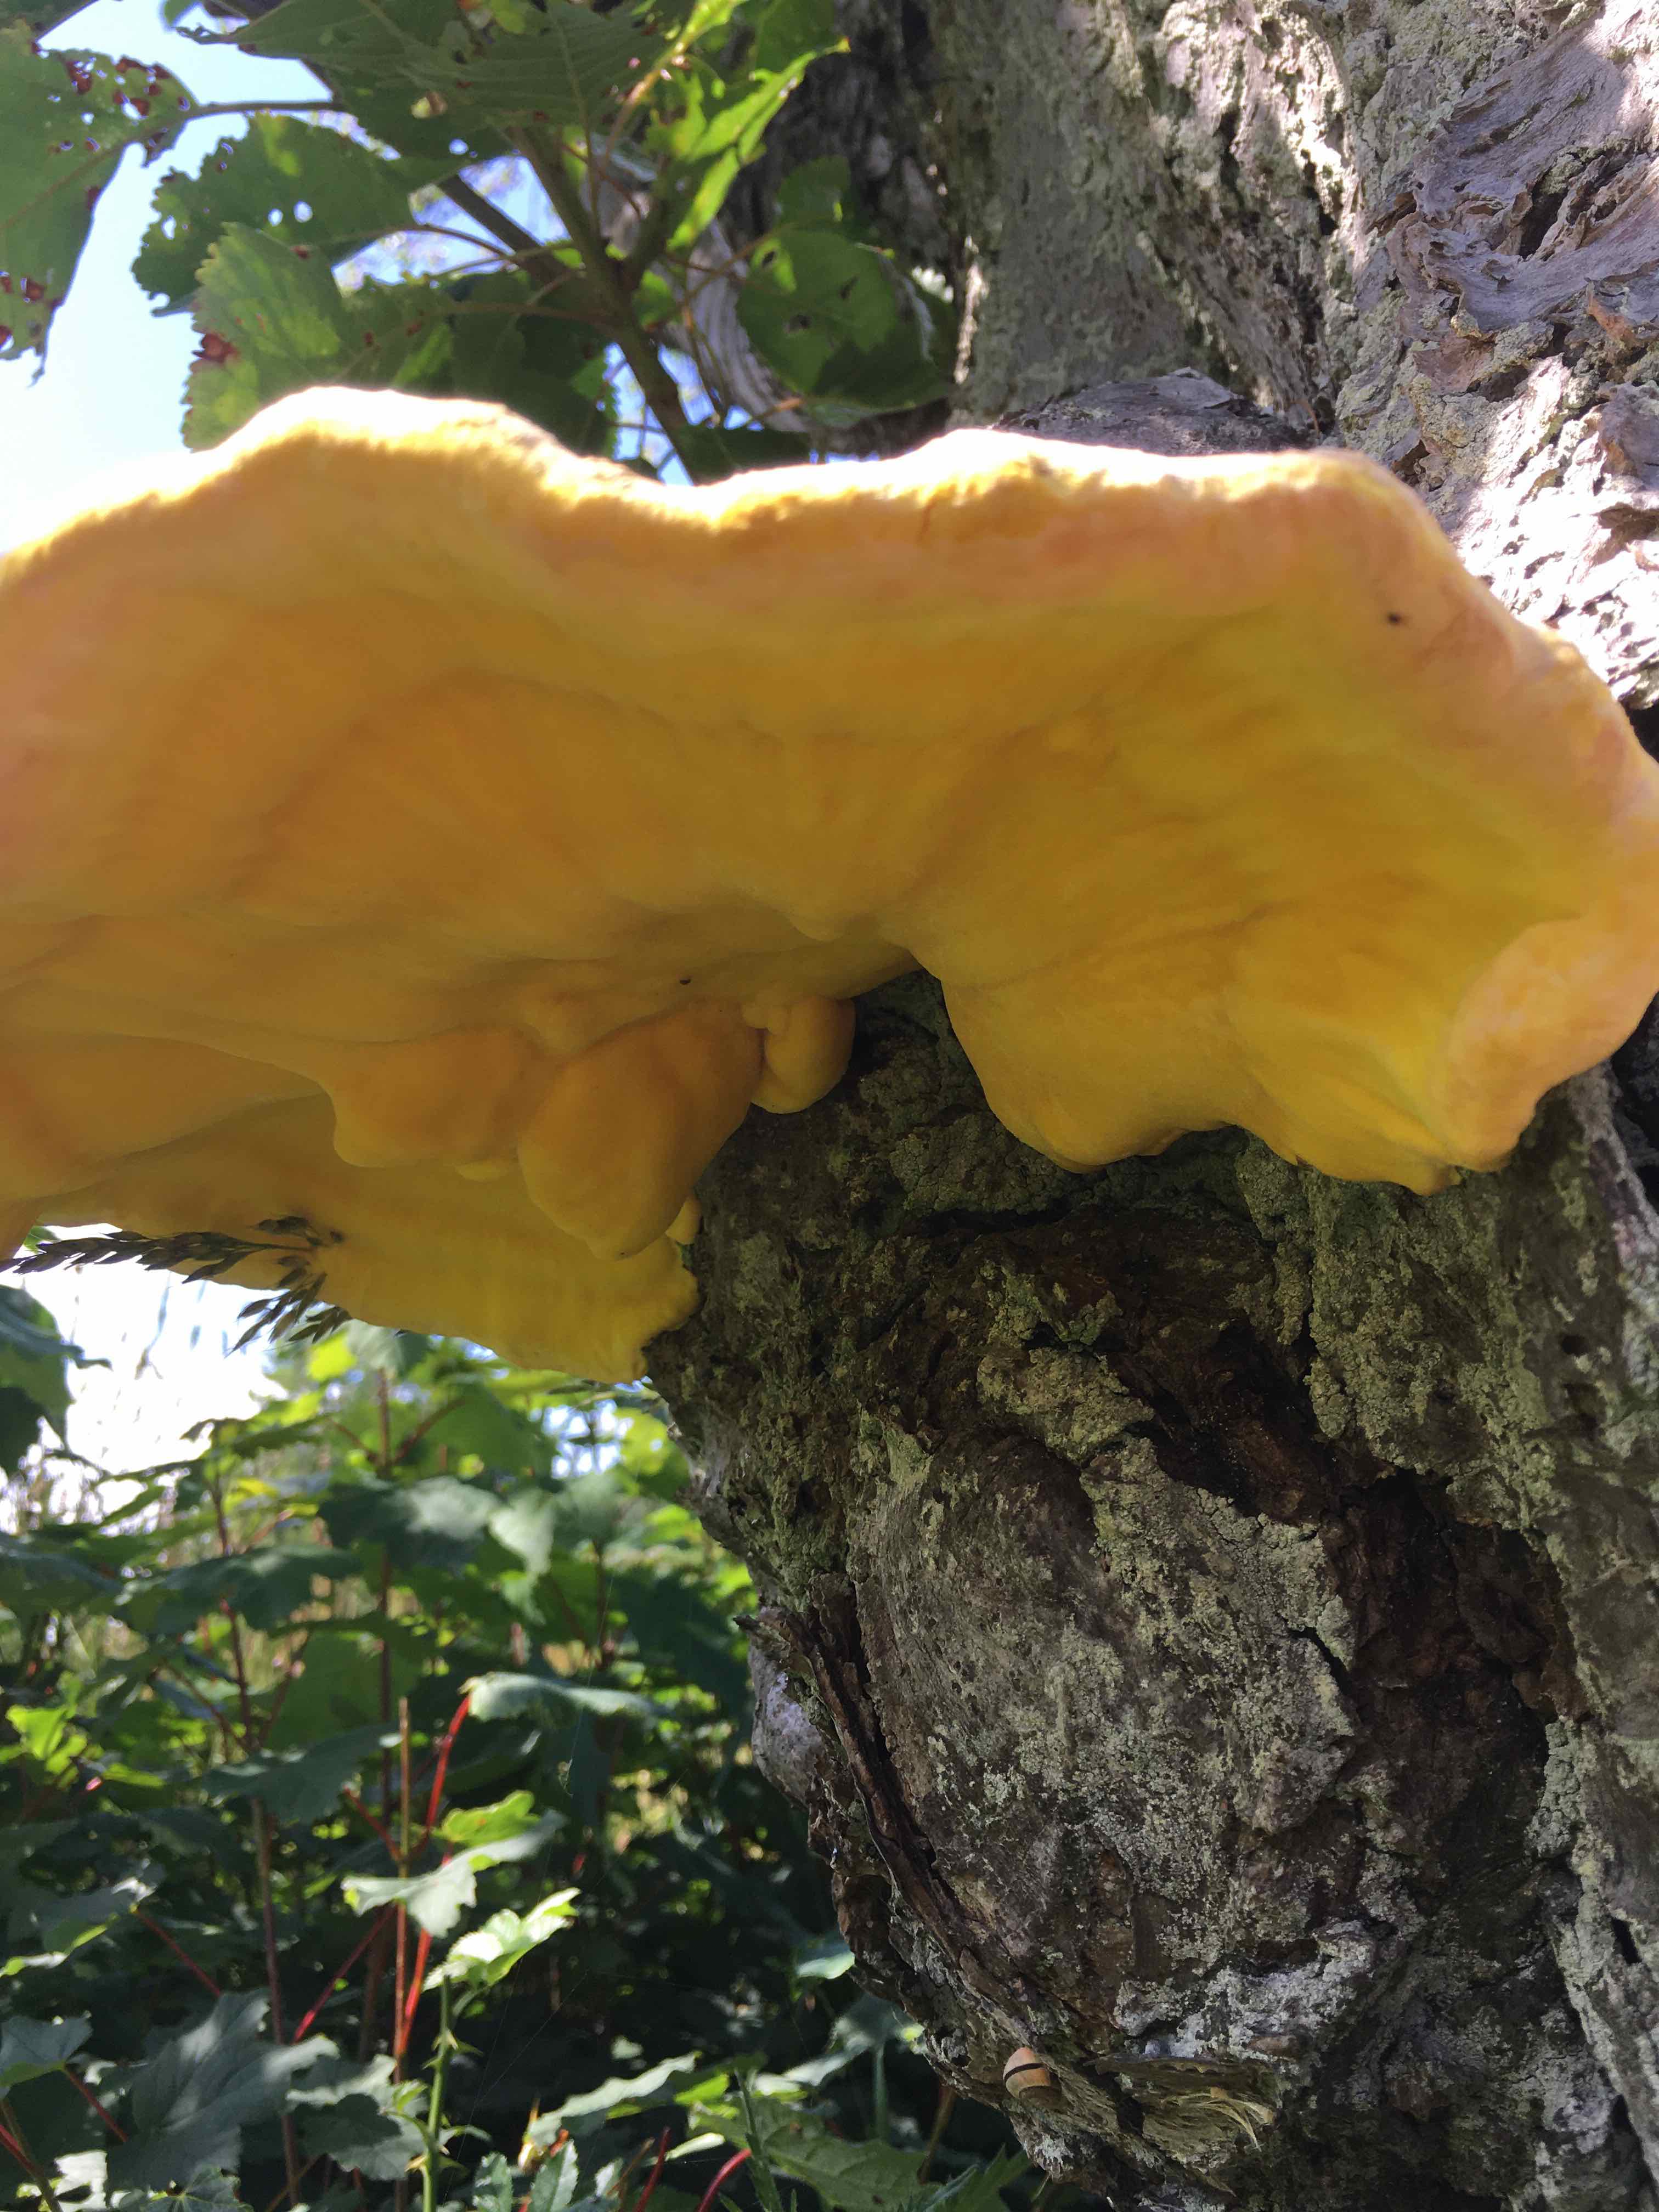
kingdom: Fungi
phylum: Basidiomycota
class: Agaricomycetes
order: Polyporales
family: Laetiporaceae
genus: Laetiporus
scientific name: Laetiporus sulphureus
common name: svovlporesvamp
